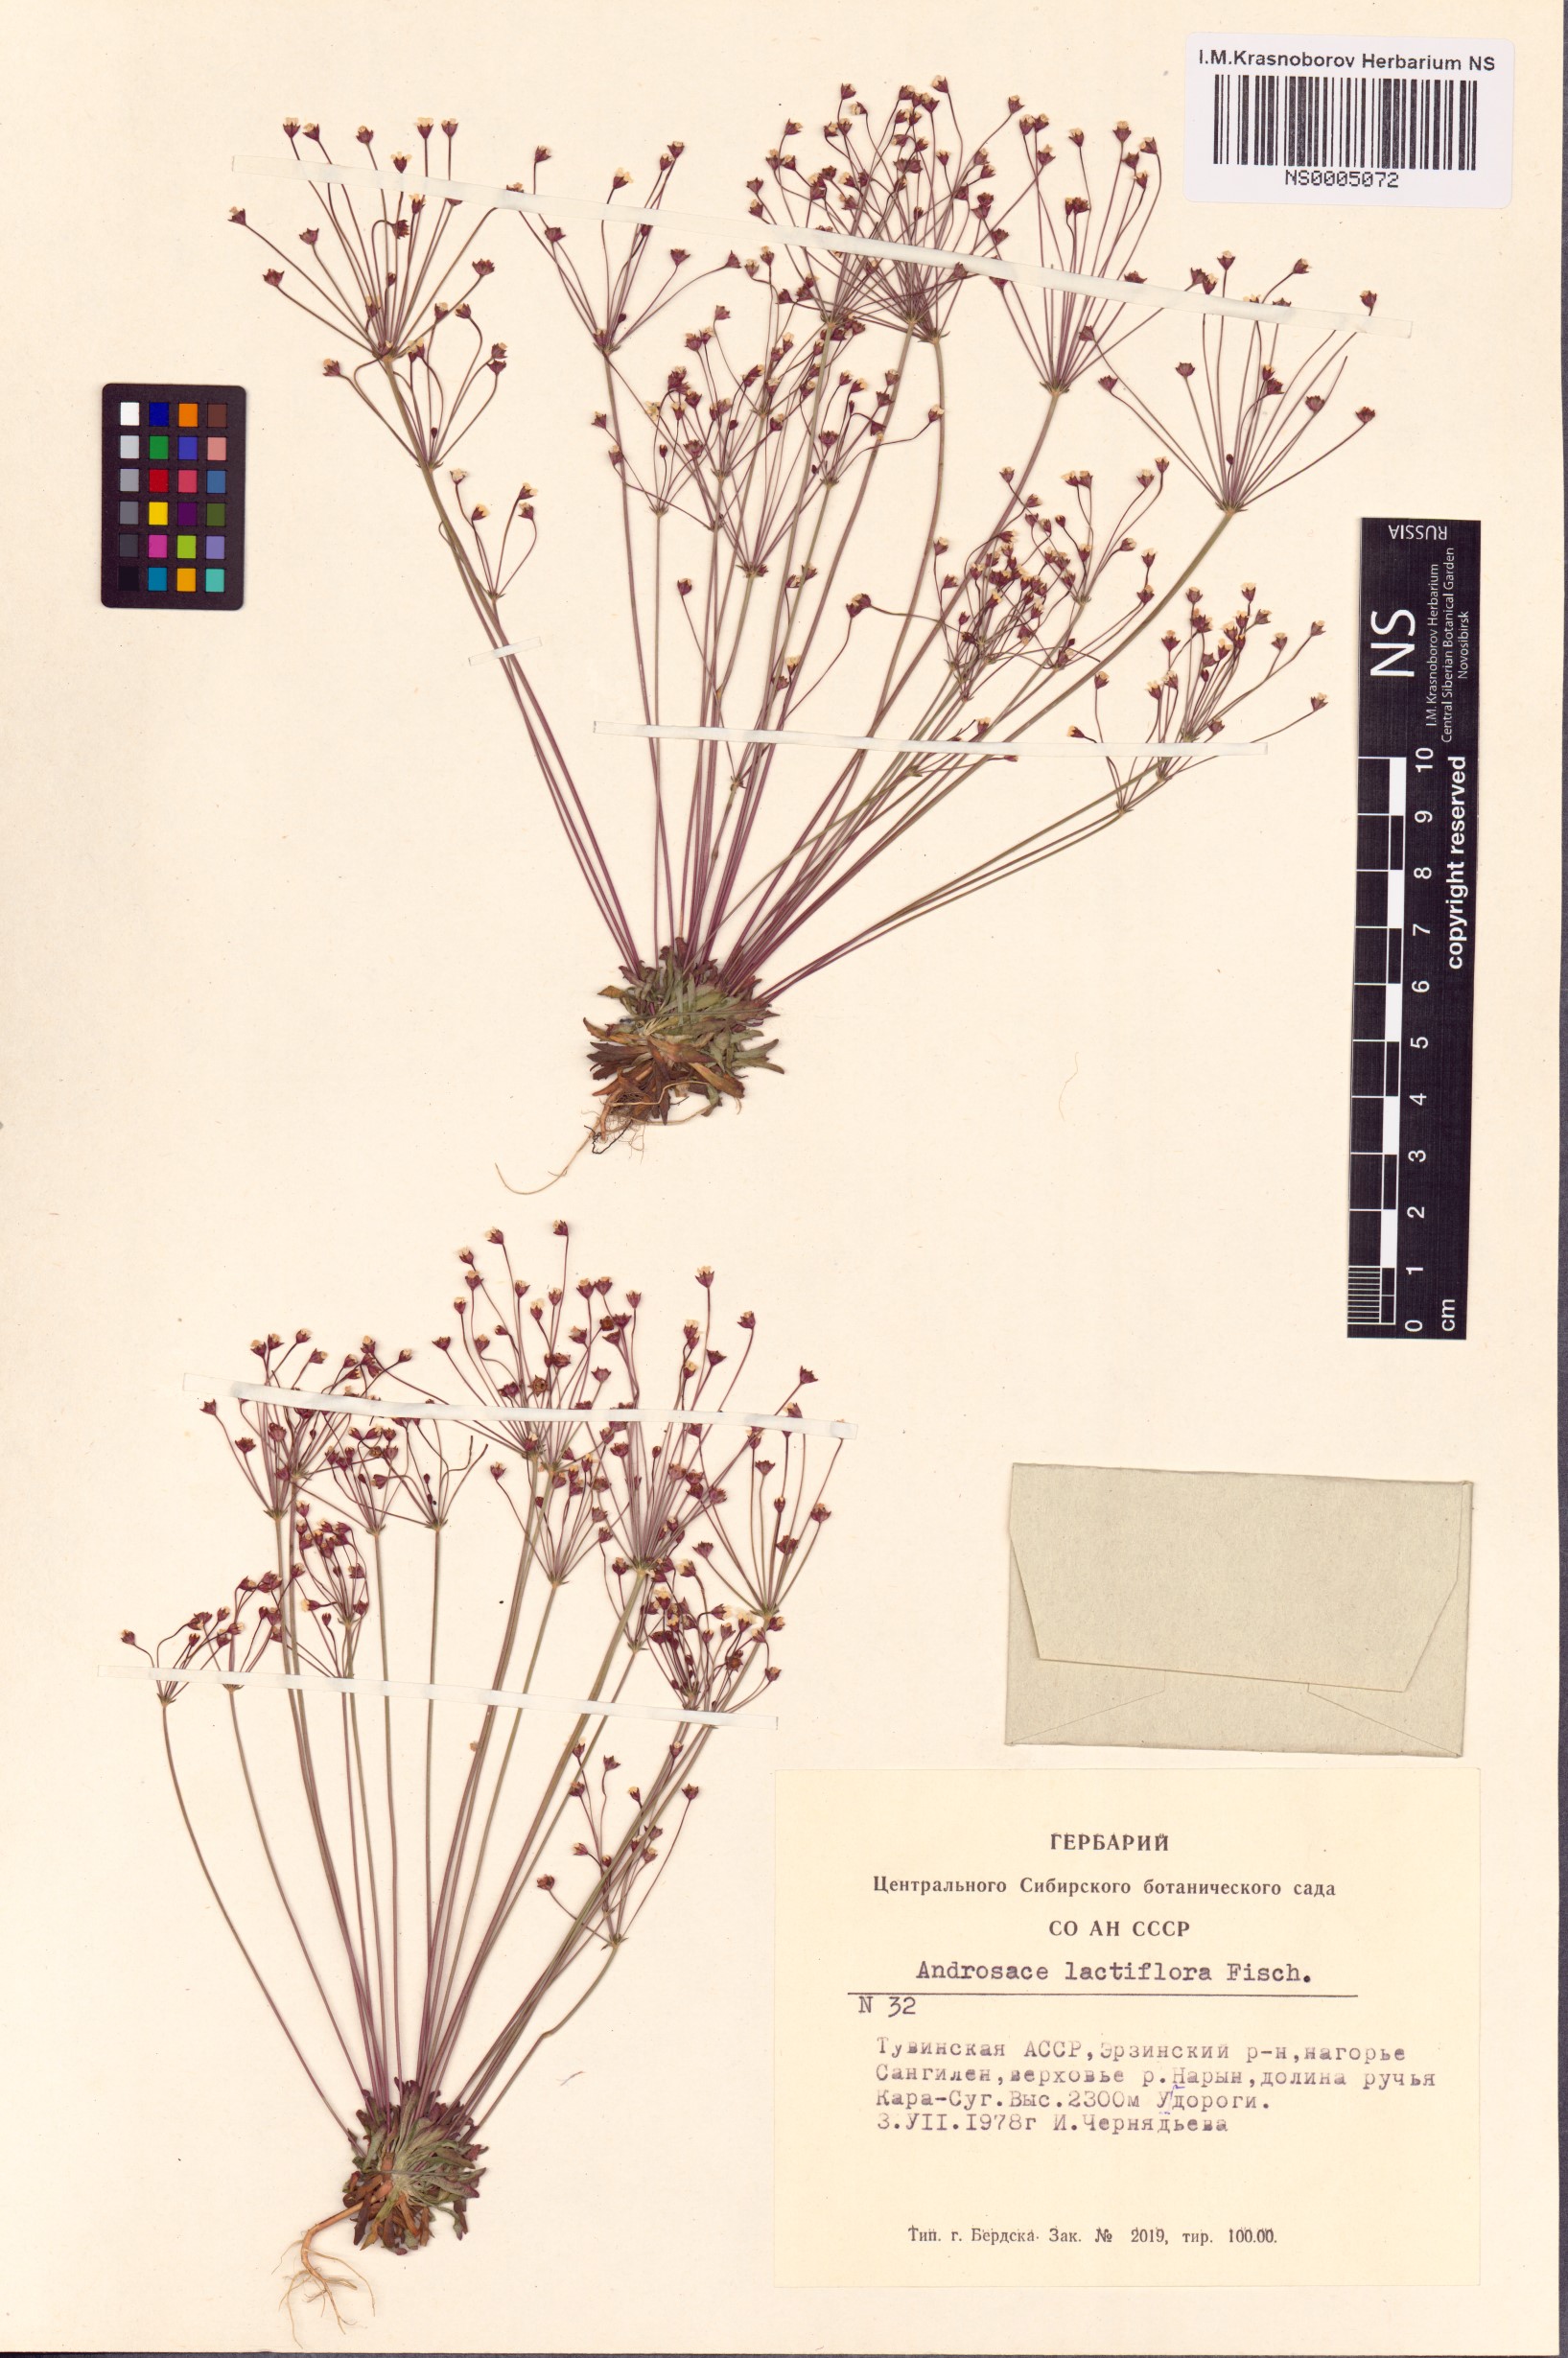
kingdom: Plantae
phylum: Tracheophyta
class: Magnoliopsida
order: Ericales
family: Primulaceae
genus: Androsace
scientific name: Androsace lactiflora
